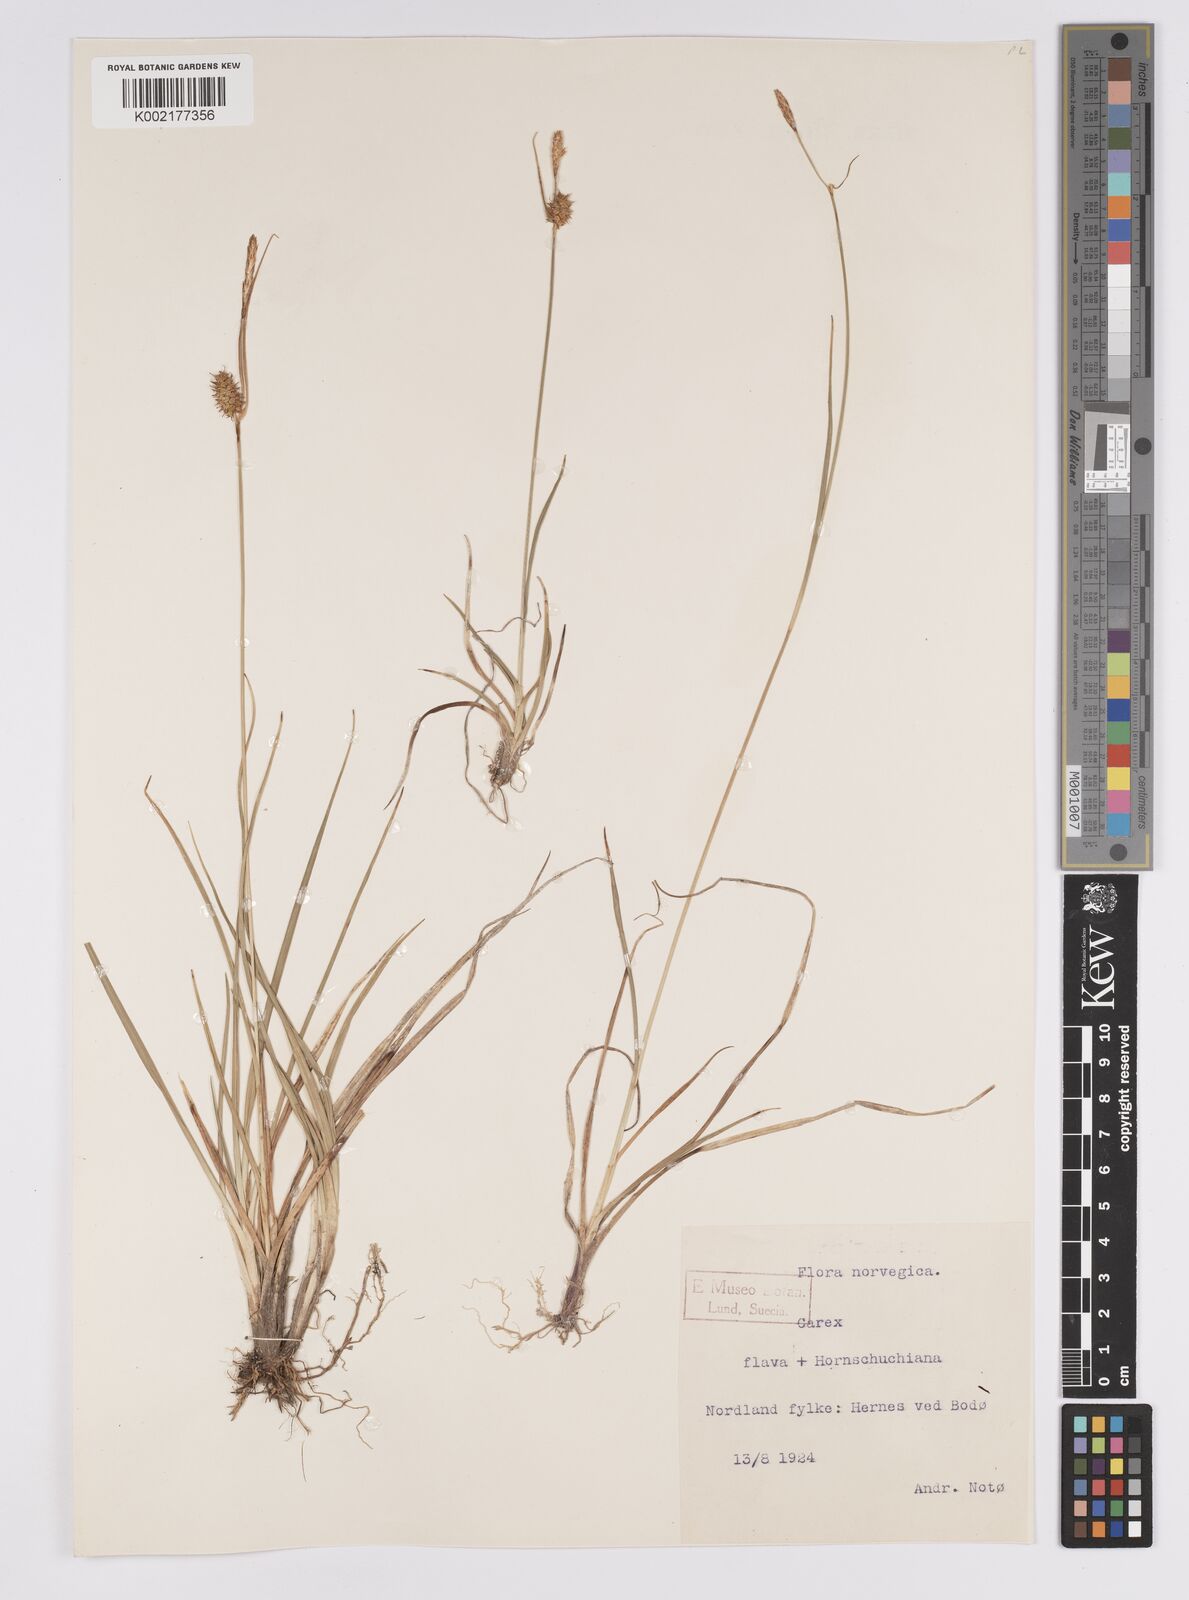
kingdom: Plantae
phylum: Tracheophyta
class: Liliopsida
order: Poales
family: Cyperaceae
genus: Carex
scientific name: Carex hostiana
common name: Tawny sedge
